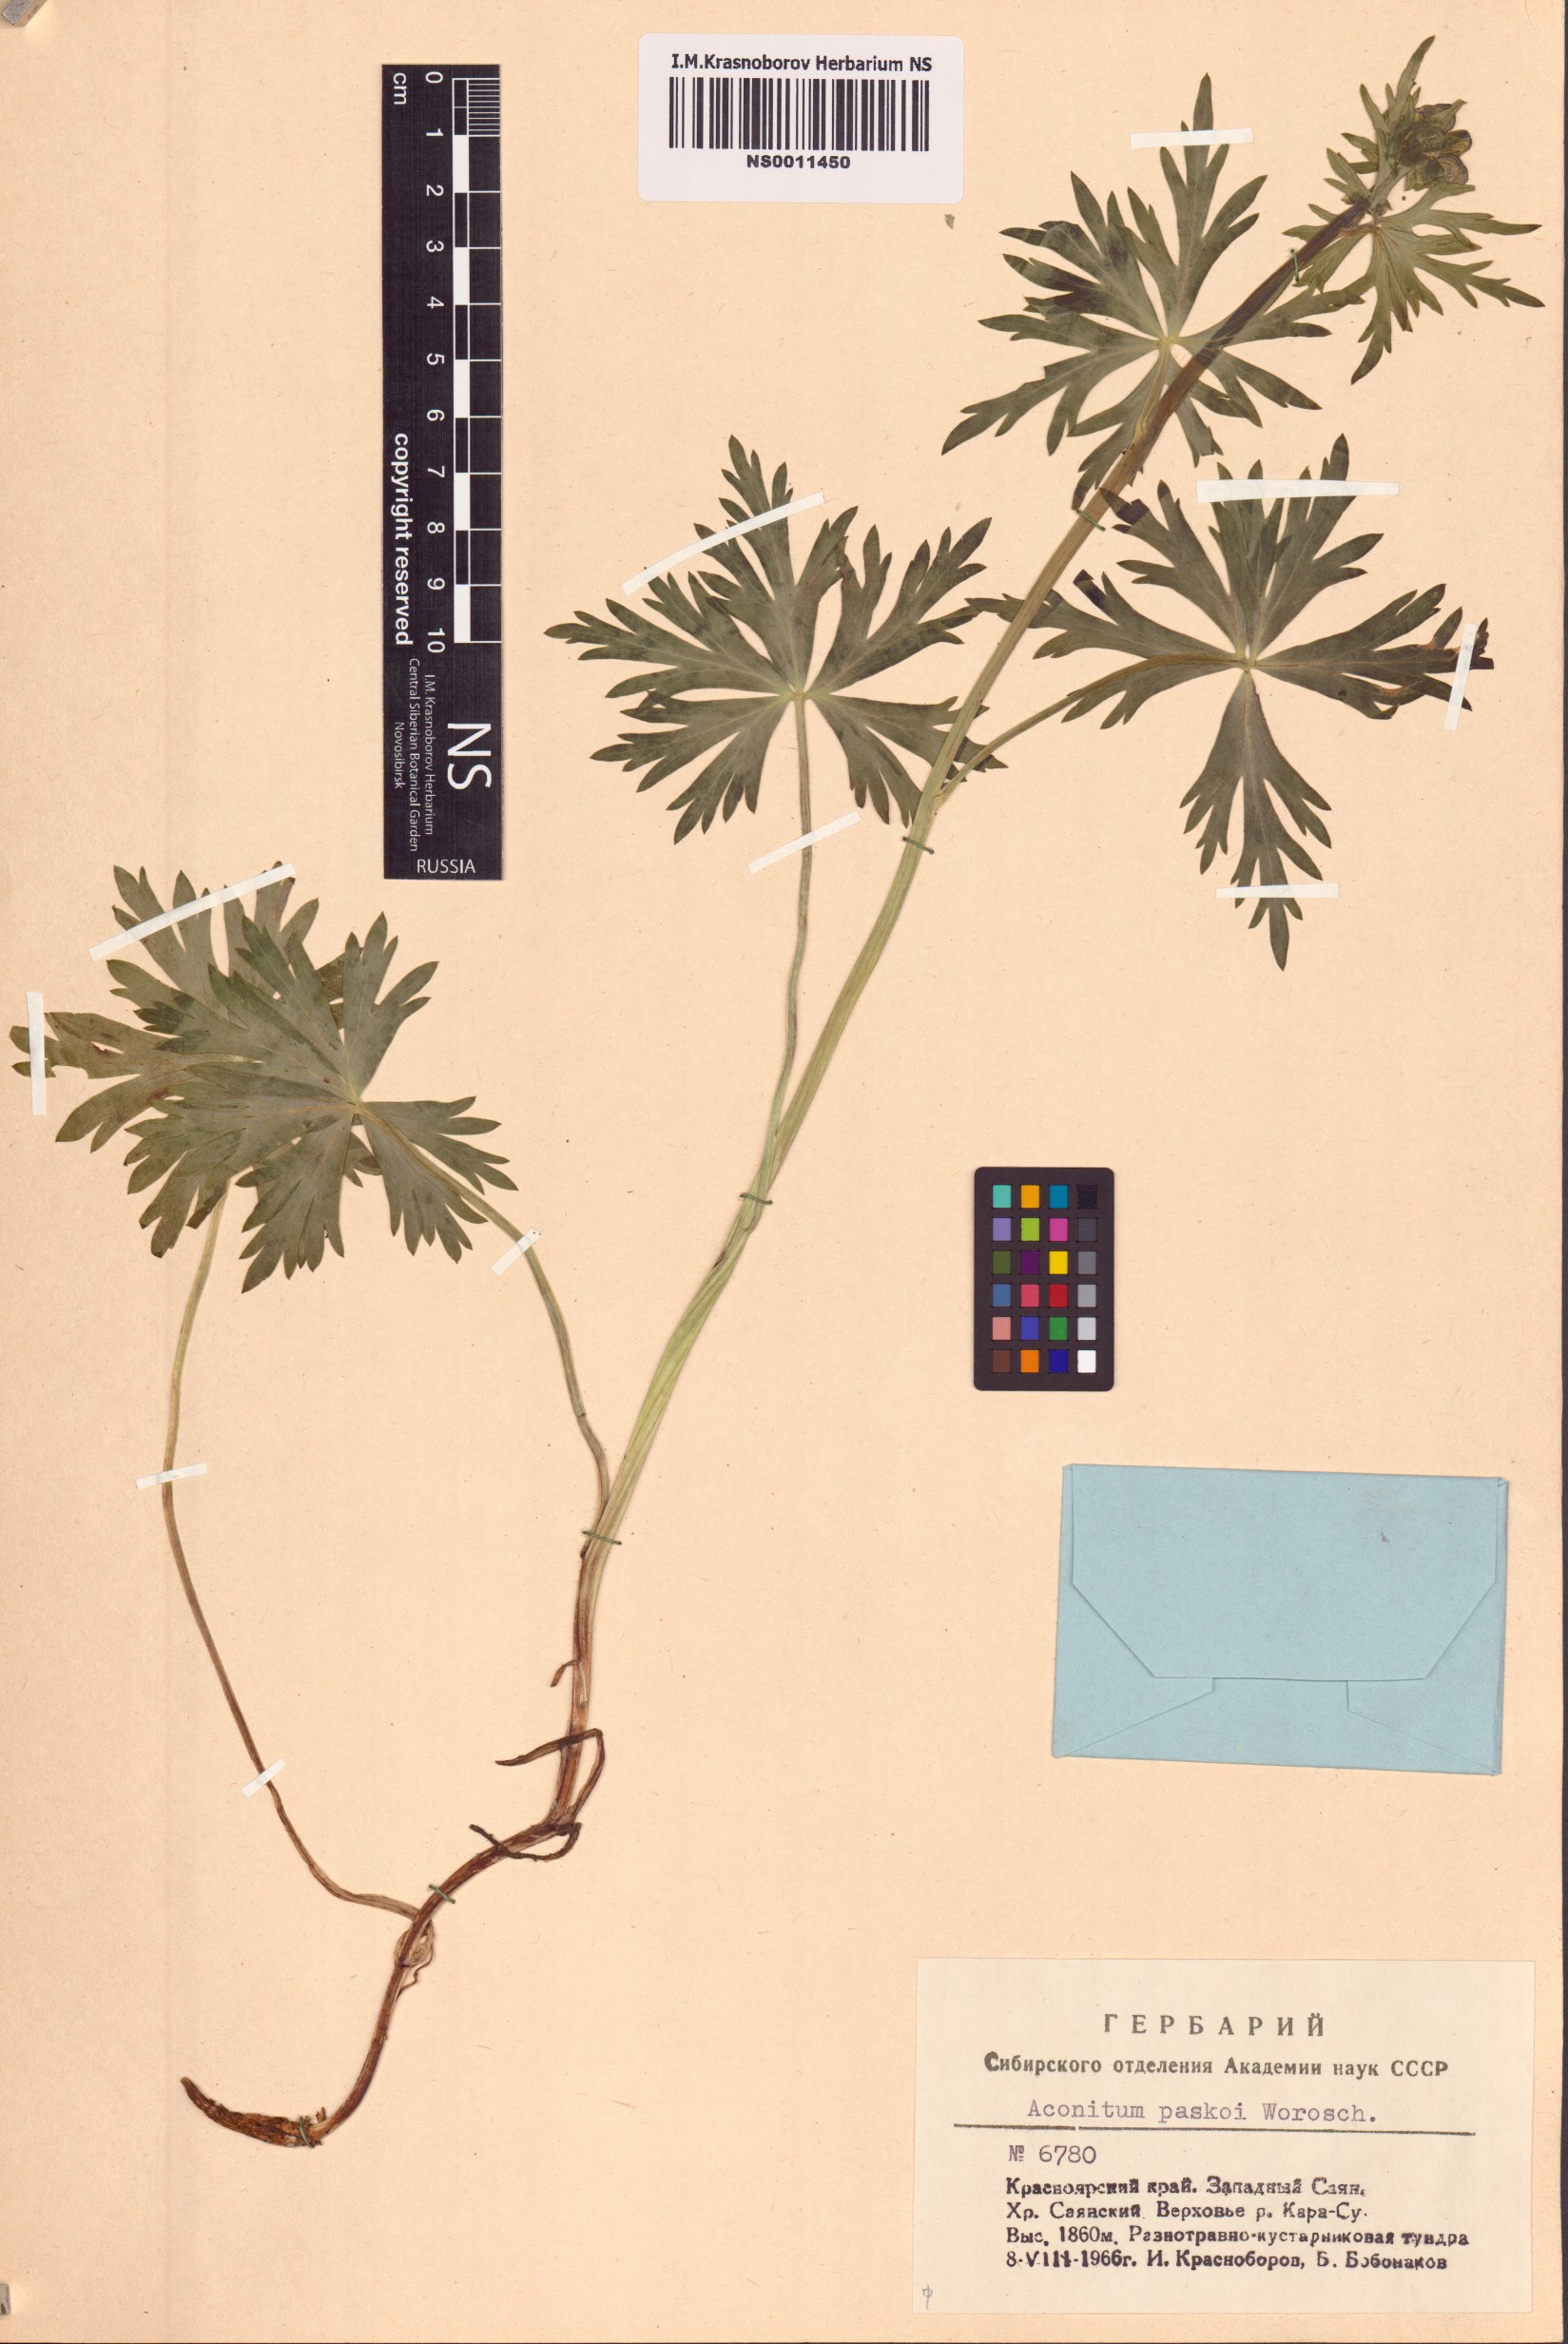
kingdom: Plantae
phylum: Tracheophyta
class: Magnoliopsida
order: Ranunculales
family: Ranunculaceae
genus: Aconitum
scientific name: Aconitum pascoi
